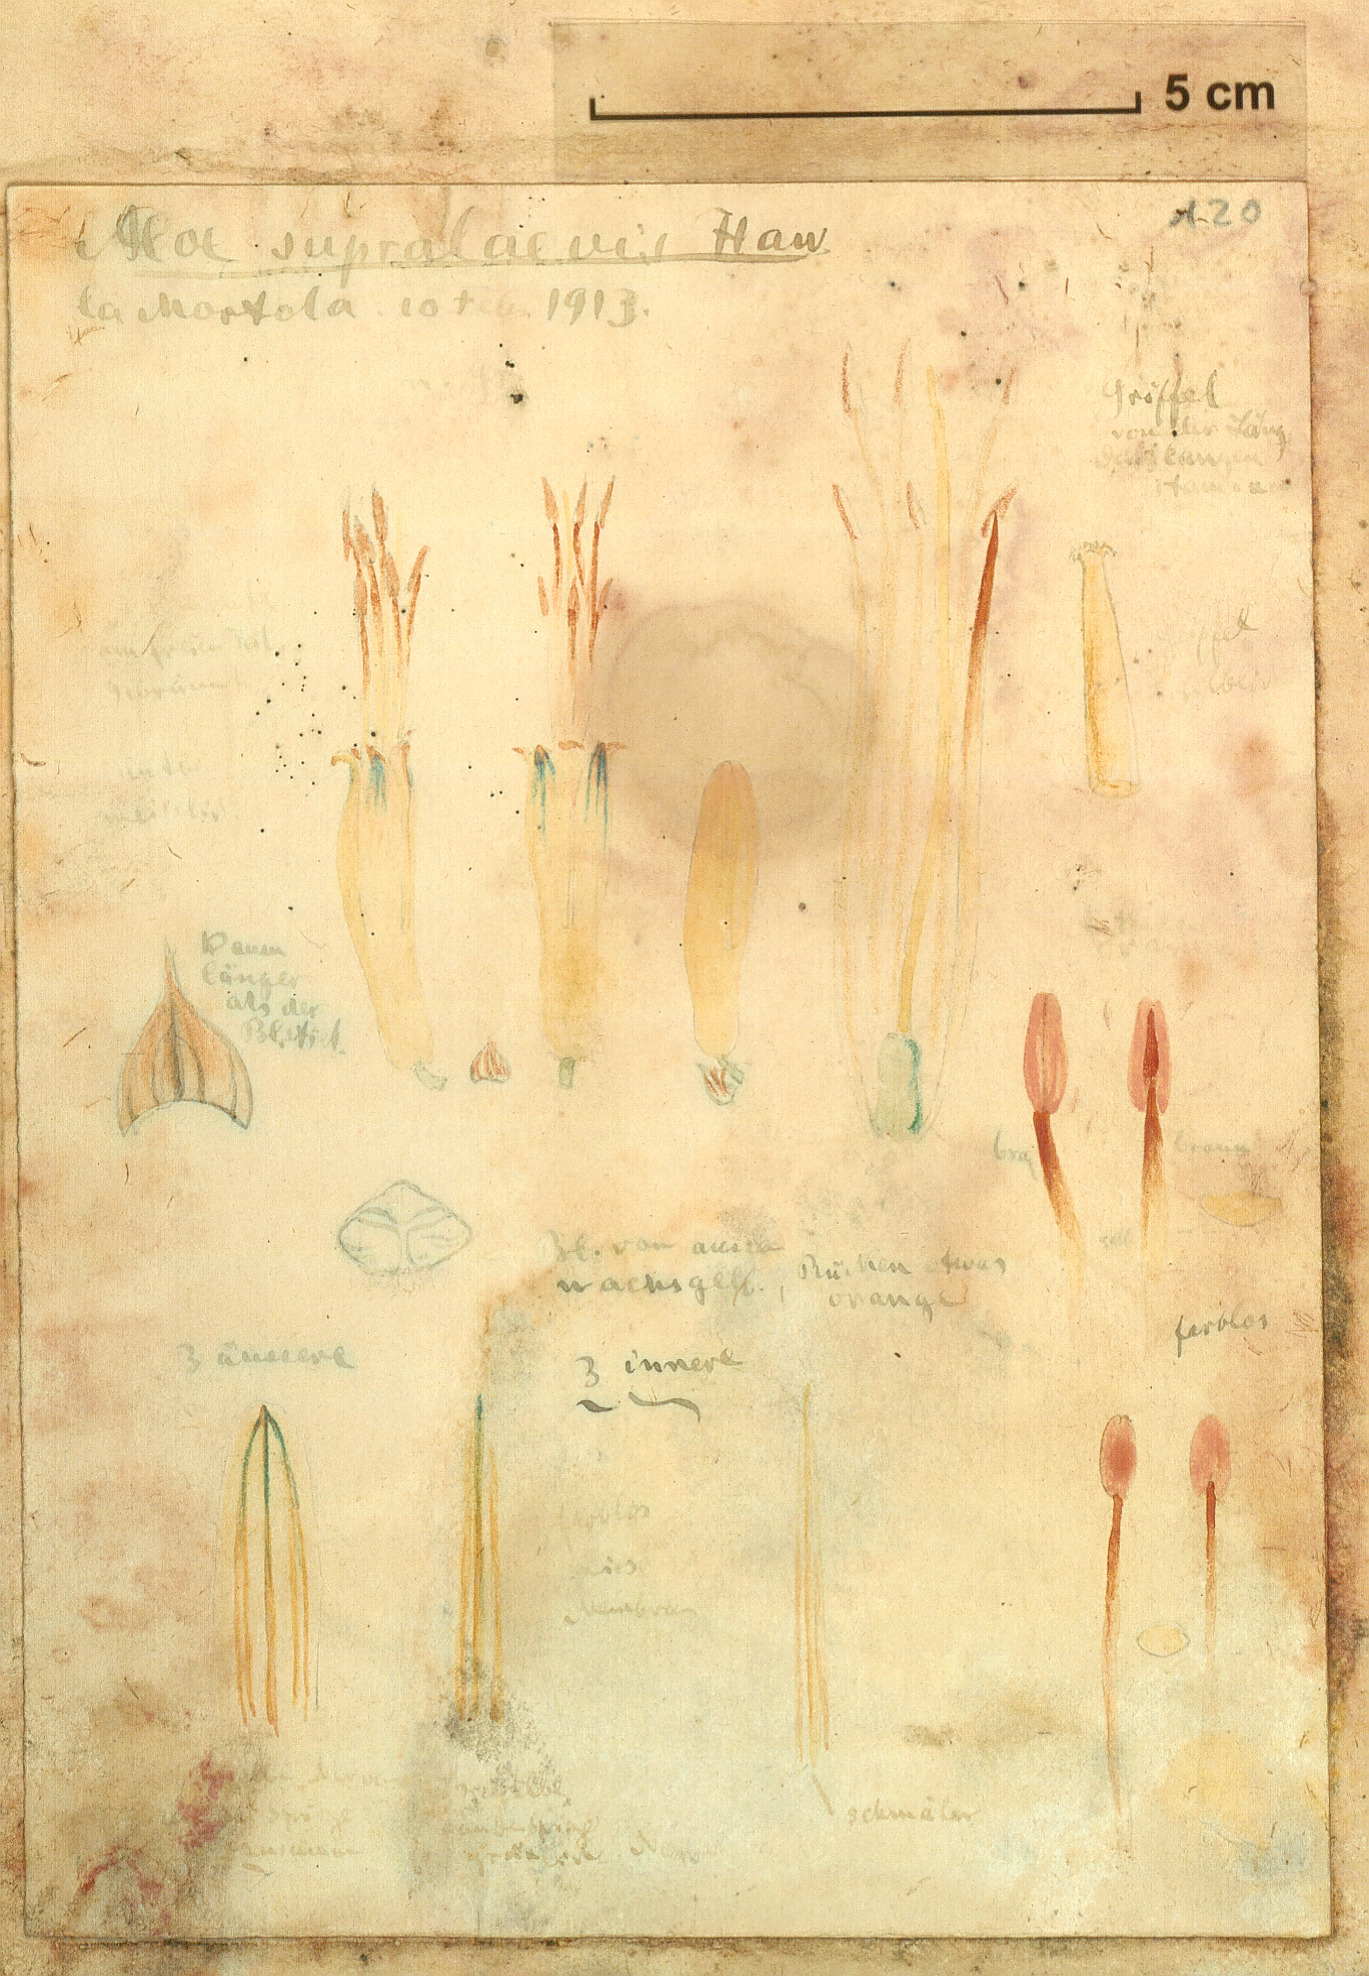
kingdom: Plantae
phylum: Tracheophyta
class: Liliopsida
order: Asparagales
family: Asphodelaceae
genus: Aloe
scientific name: Aloe ferox
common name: Bitter aloe
